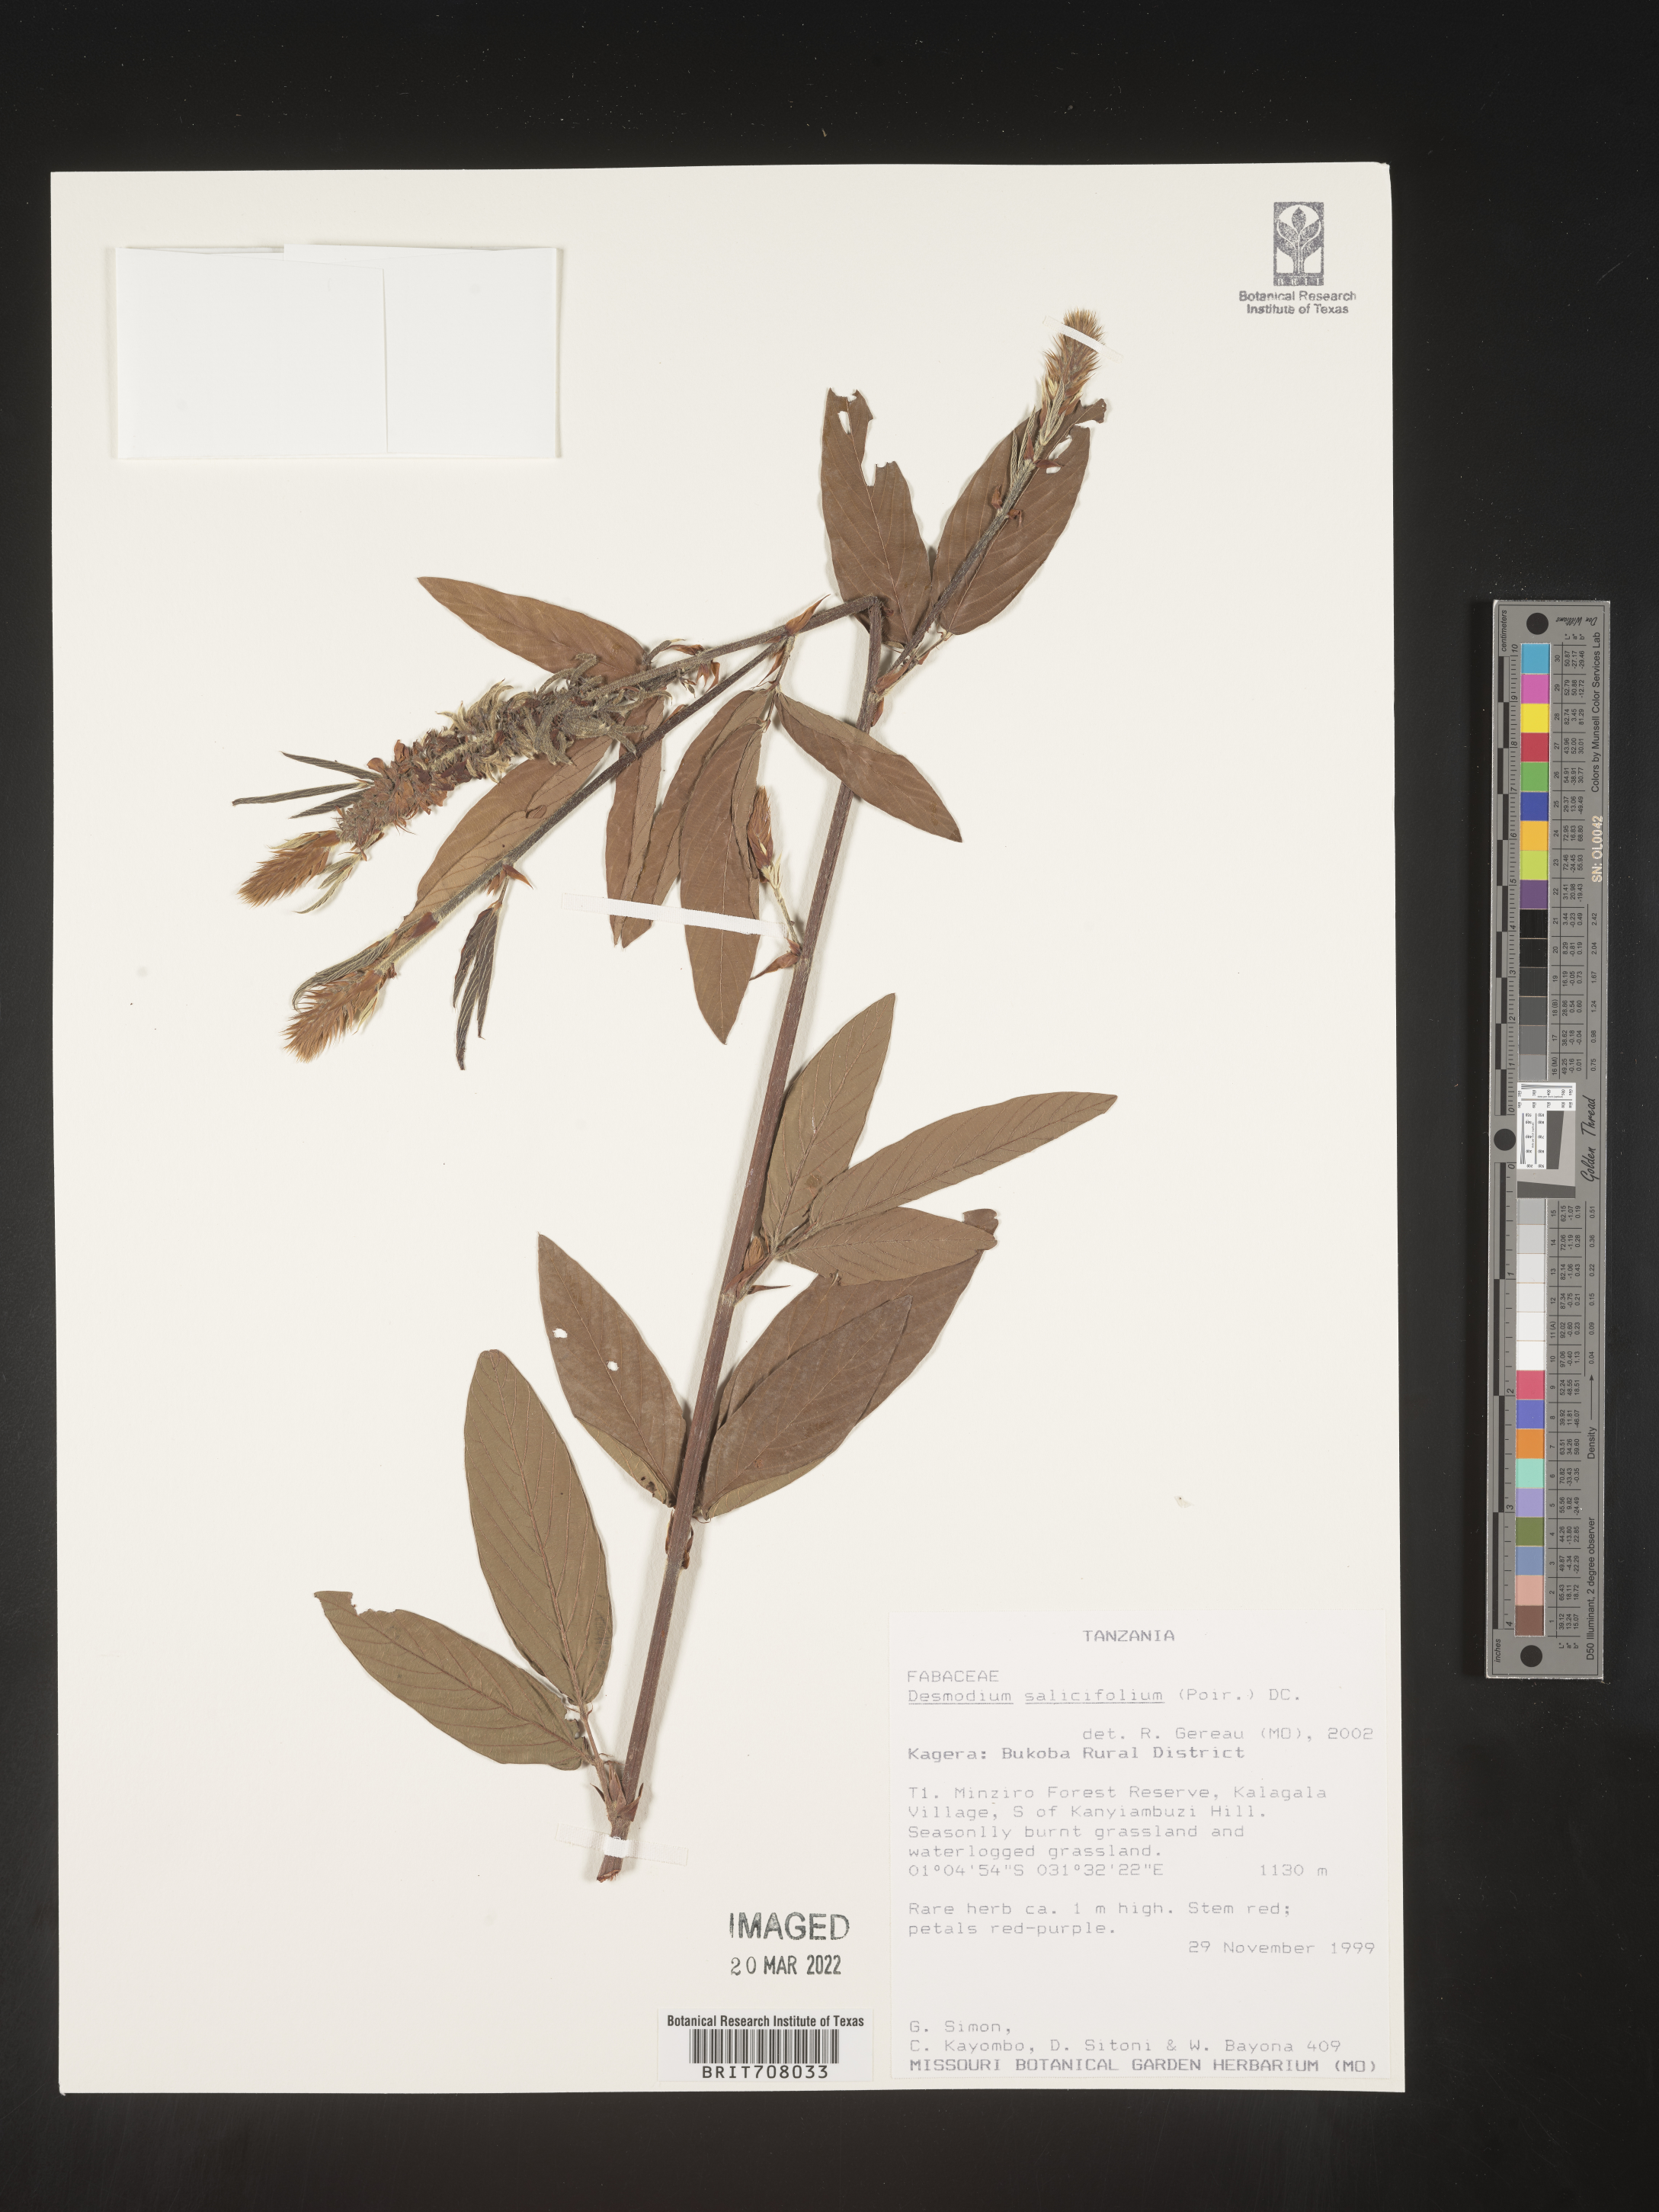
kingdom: Plantae
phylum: Tracheophyta
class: Magnoliopsida
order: Fabales
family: Fabaceae
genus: Desmodium
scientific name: Desmodium
